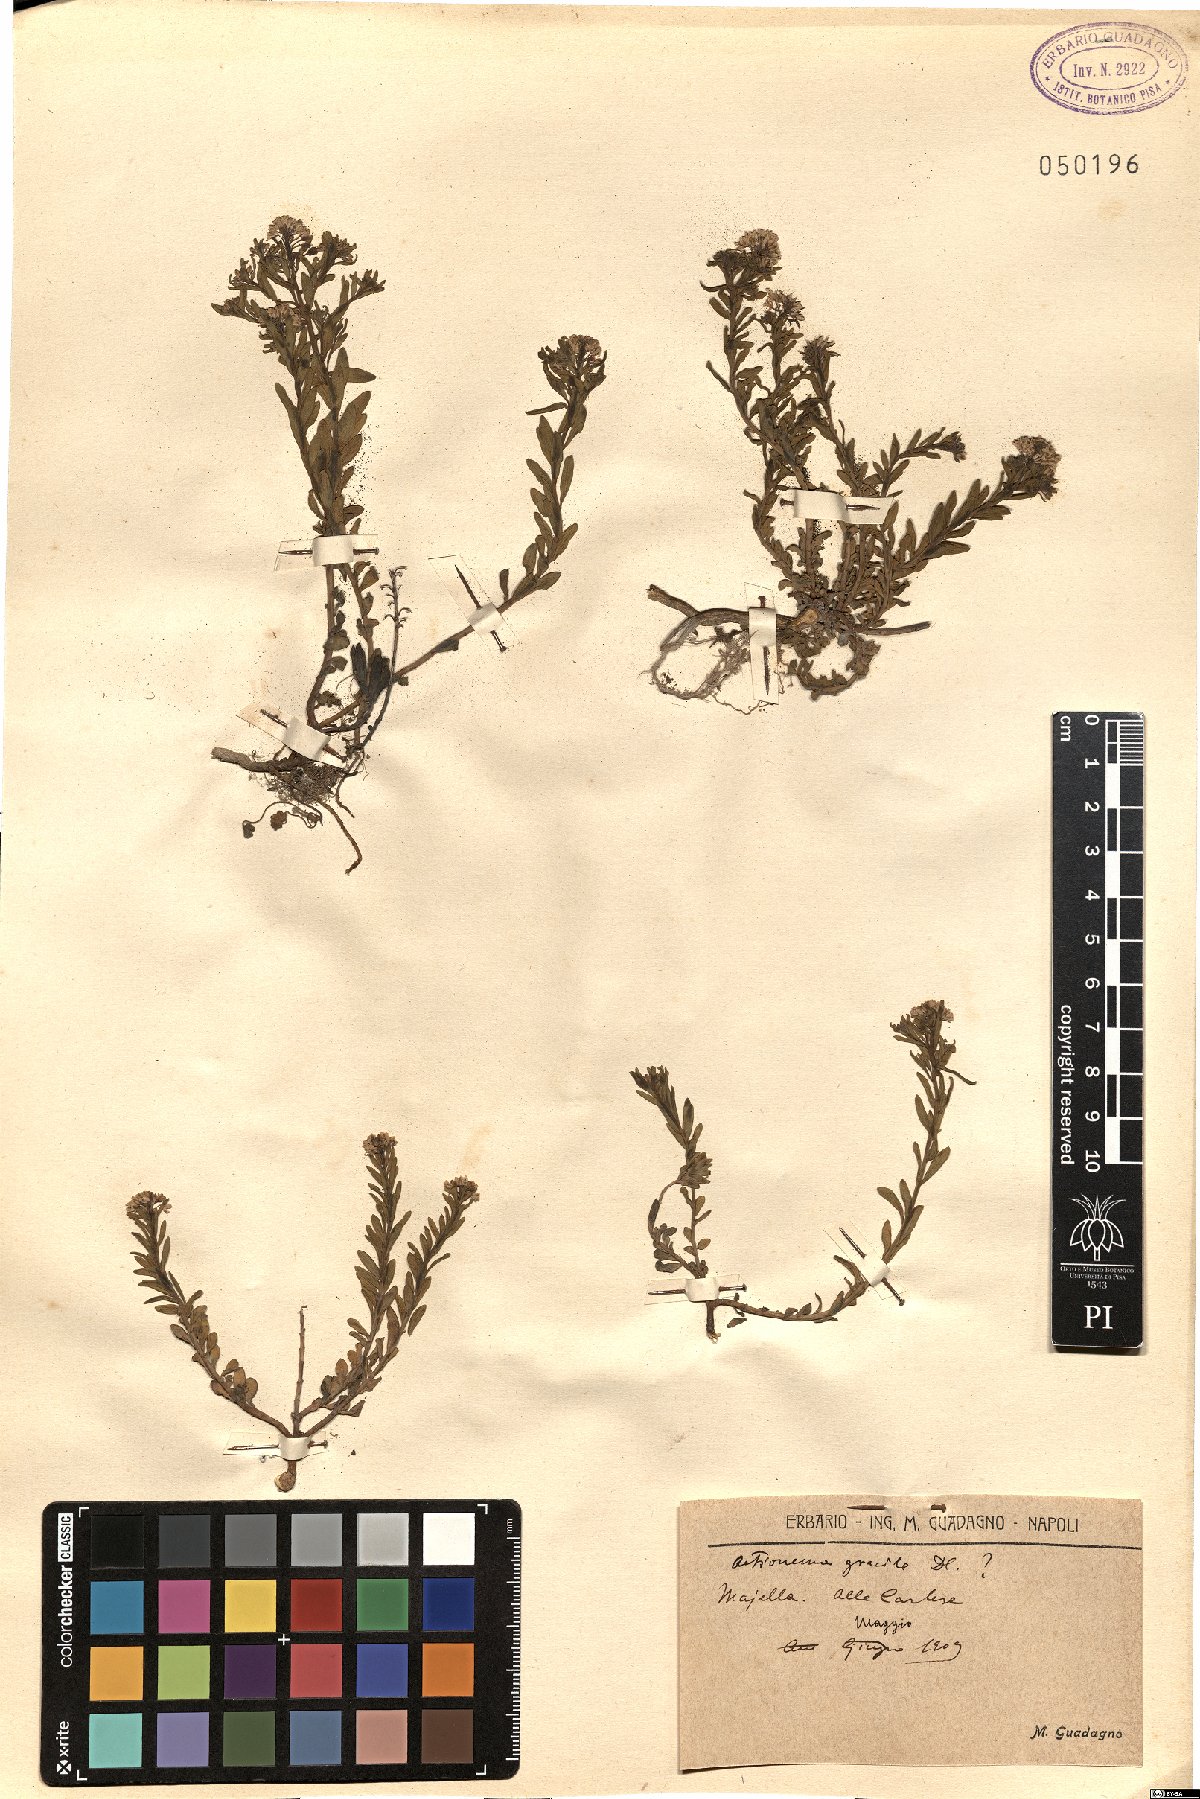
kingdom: Plantae
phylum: Tracheophyta
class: Magnoliopsida
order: Brassicales
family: Brassicaceae
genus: Aethionema
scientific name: Aethionema saxatile
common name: Burnt candytuft
